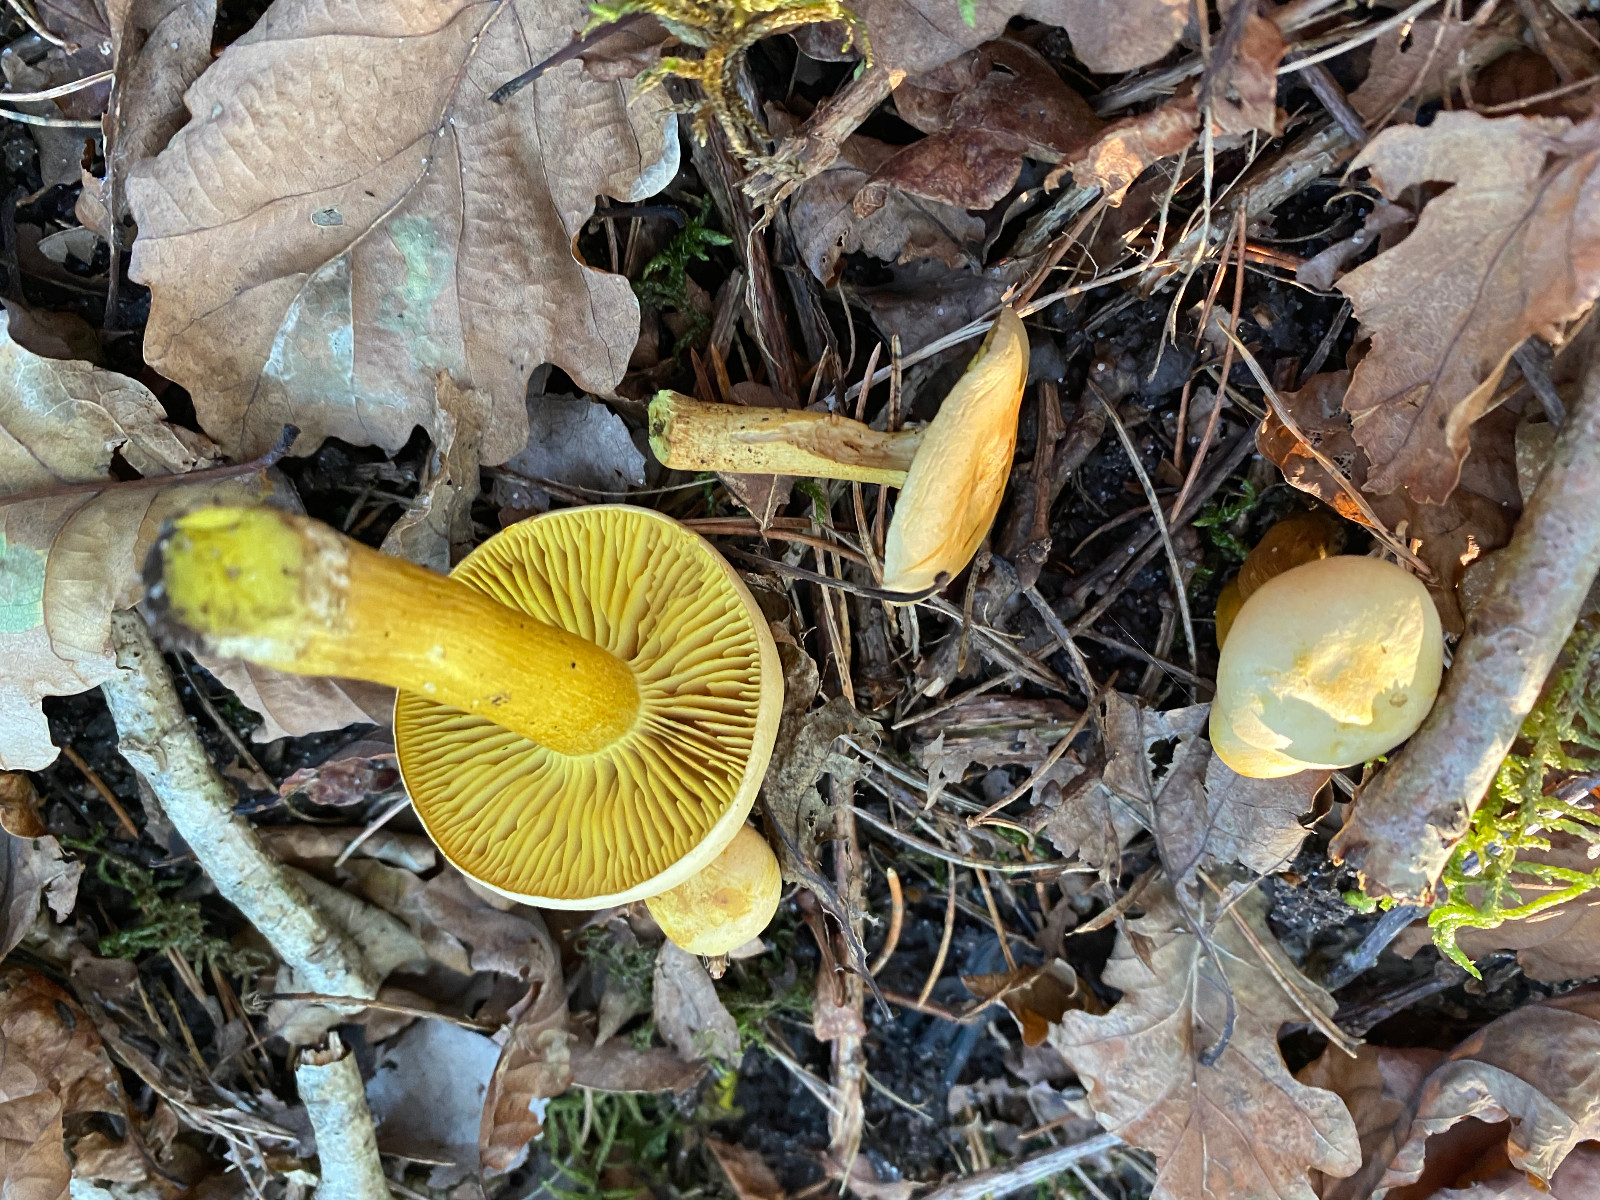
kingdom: Fungi
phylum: Basidiomycota
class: Agaricomycetes
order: Agaricales
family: Tricholomataceae
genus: Tricholoma
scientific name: Tricholoma sulphureum
